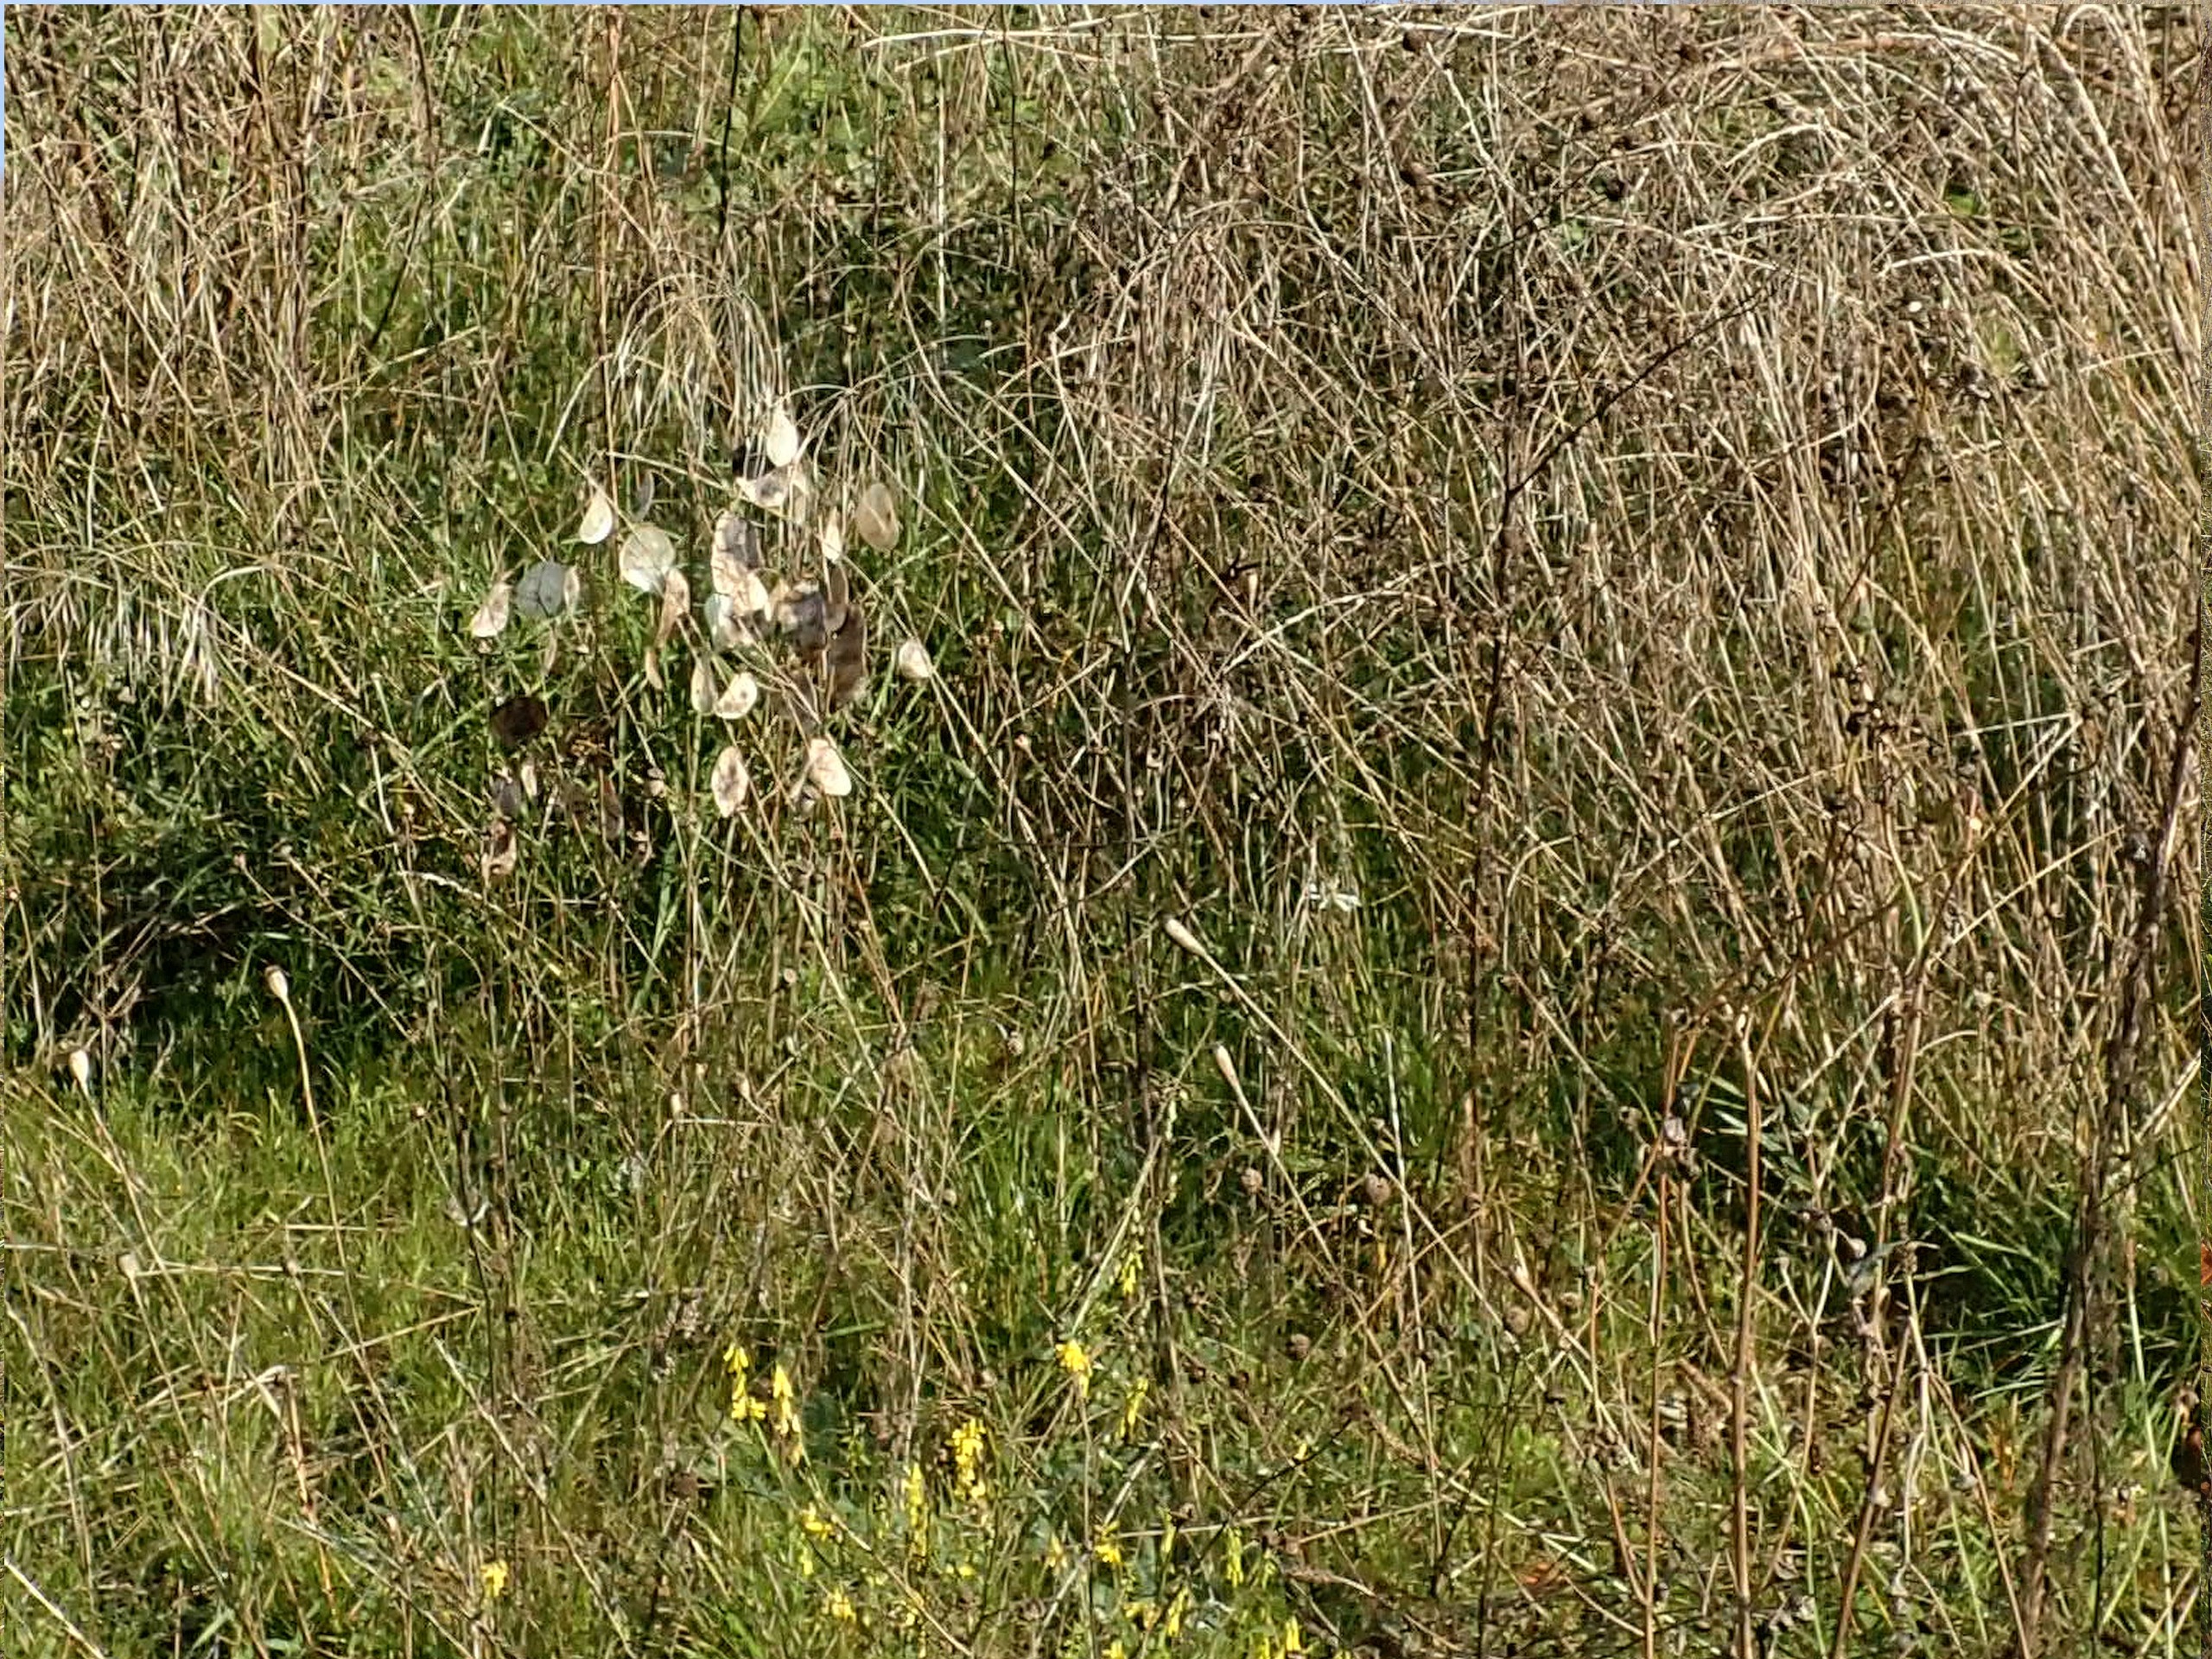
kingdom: Plantae
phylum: Tracheophyta
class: Magnoliopsida
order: Brassicales
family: Brassicaceae
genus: Lunaria
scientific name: Lunaria annua
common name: Judaspenge
